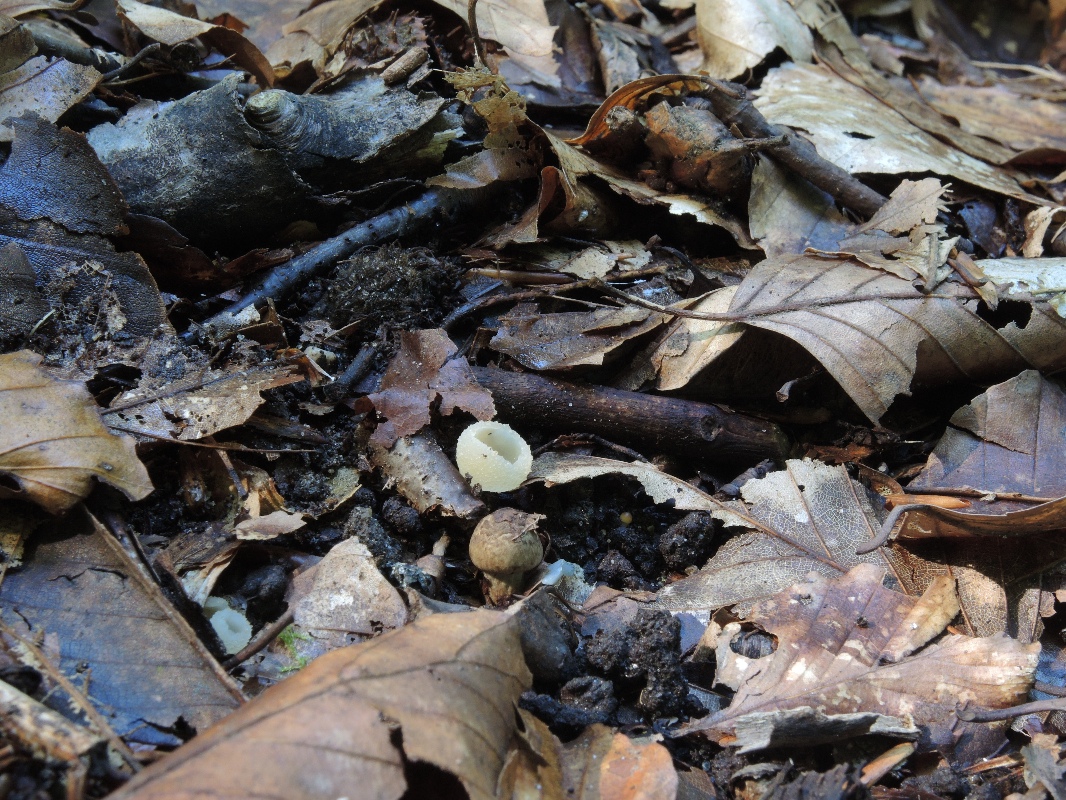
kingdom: Fungi
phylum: Basidiomycota
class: Agaricomycetes
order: Agaricales
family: Inocybaceae
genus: Inocybe
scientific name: Inocybe brunneotomentosa
